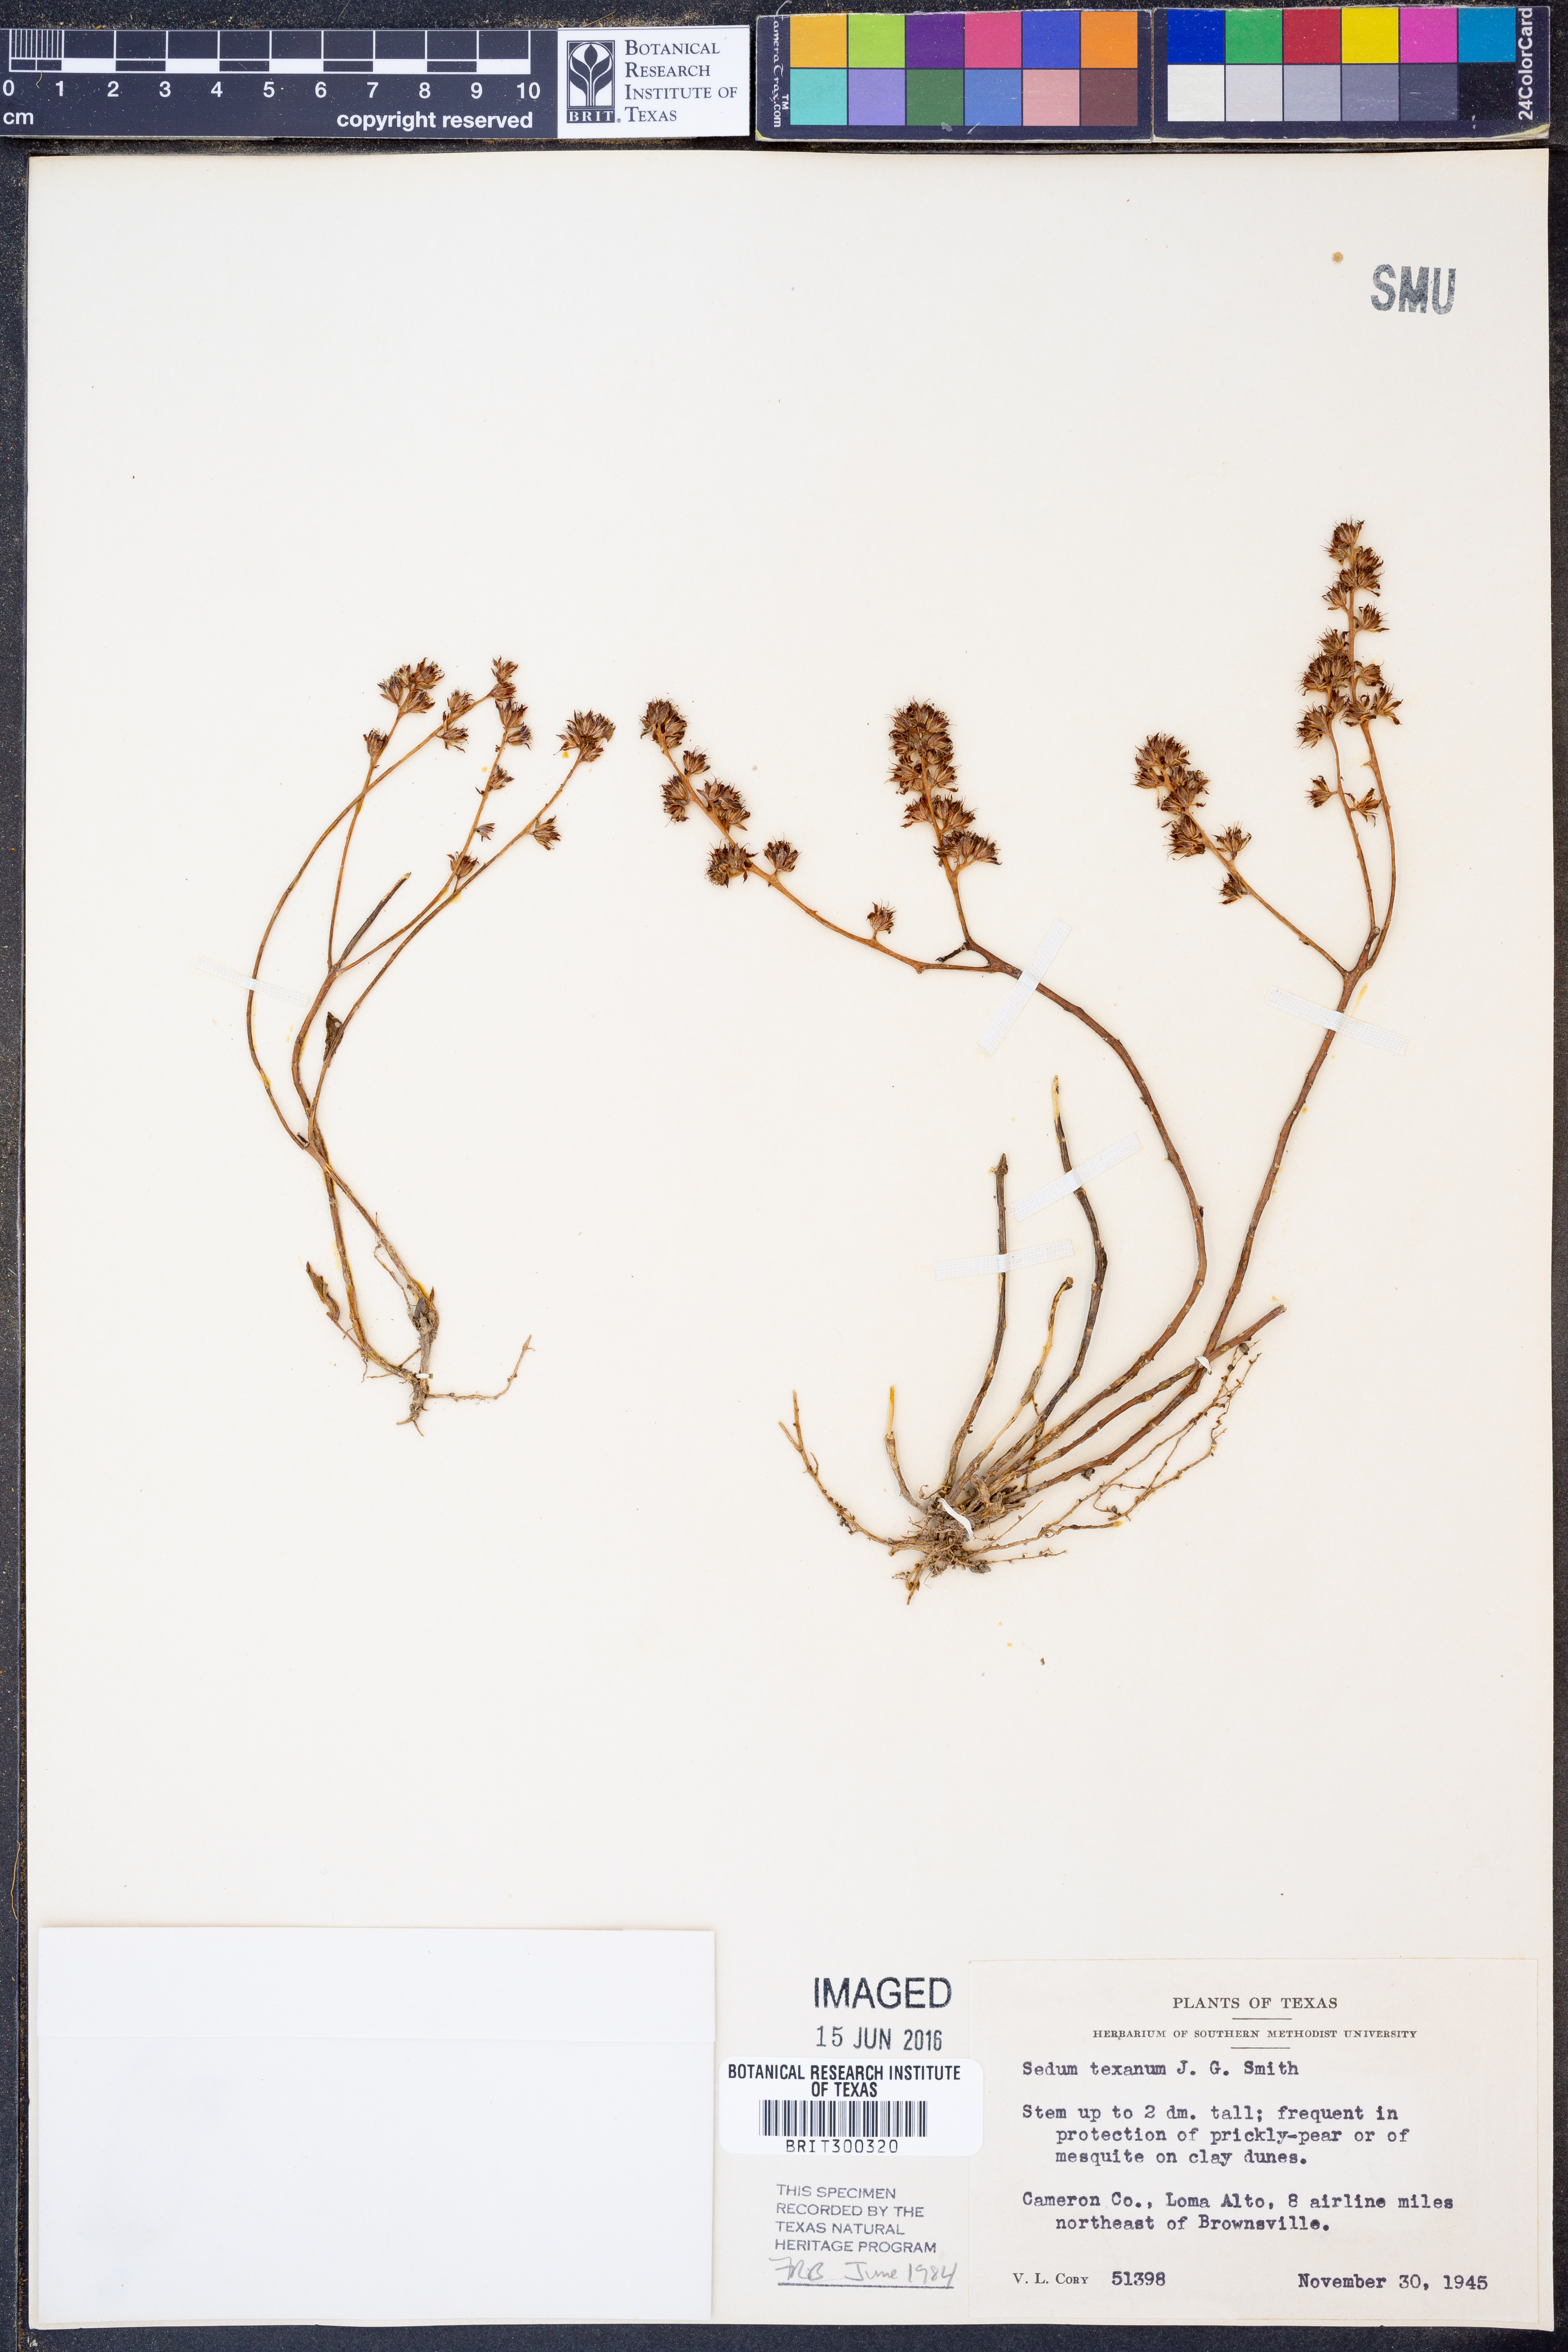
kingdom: Plantae
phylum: Tracheophyta
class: Magnoliopsida
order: Saxifragales
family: Crassulaceae
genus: Lenophyllum
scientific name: Lenophyllum texanum
